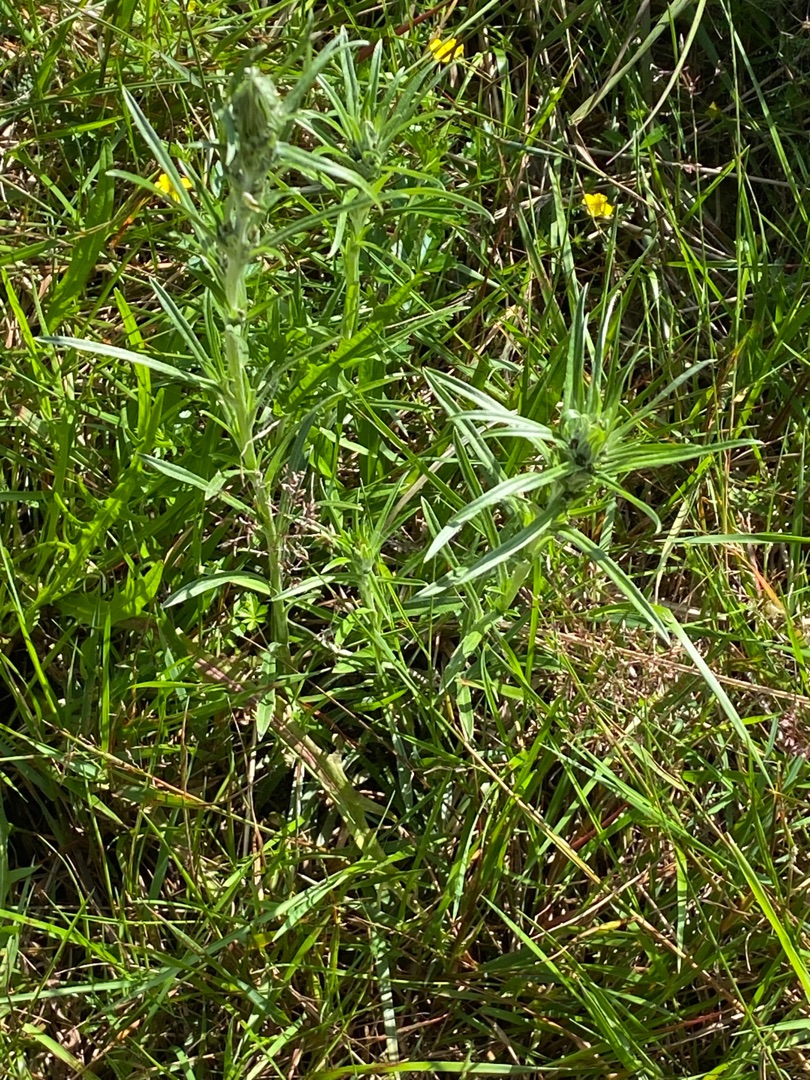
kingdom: Plantae
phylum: Tracheophyta
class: Magnoliopsida
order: Asterales
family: Asteraceae
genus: Omalotheca
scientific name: Omalotheca sylvatica
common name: Rank evighedsblomst
